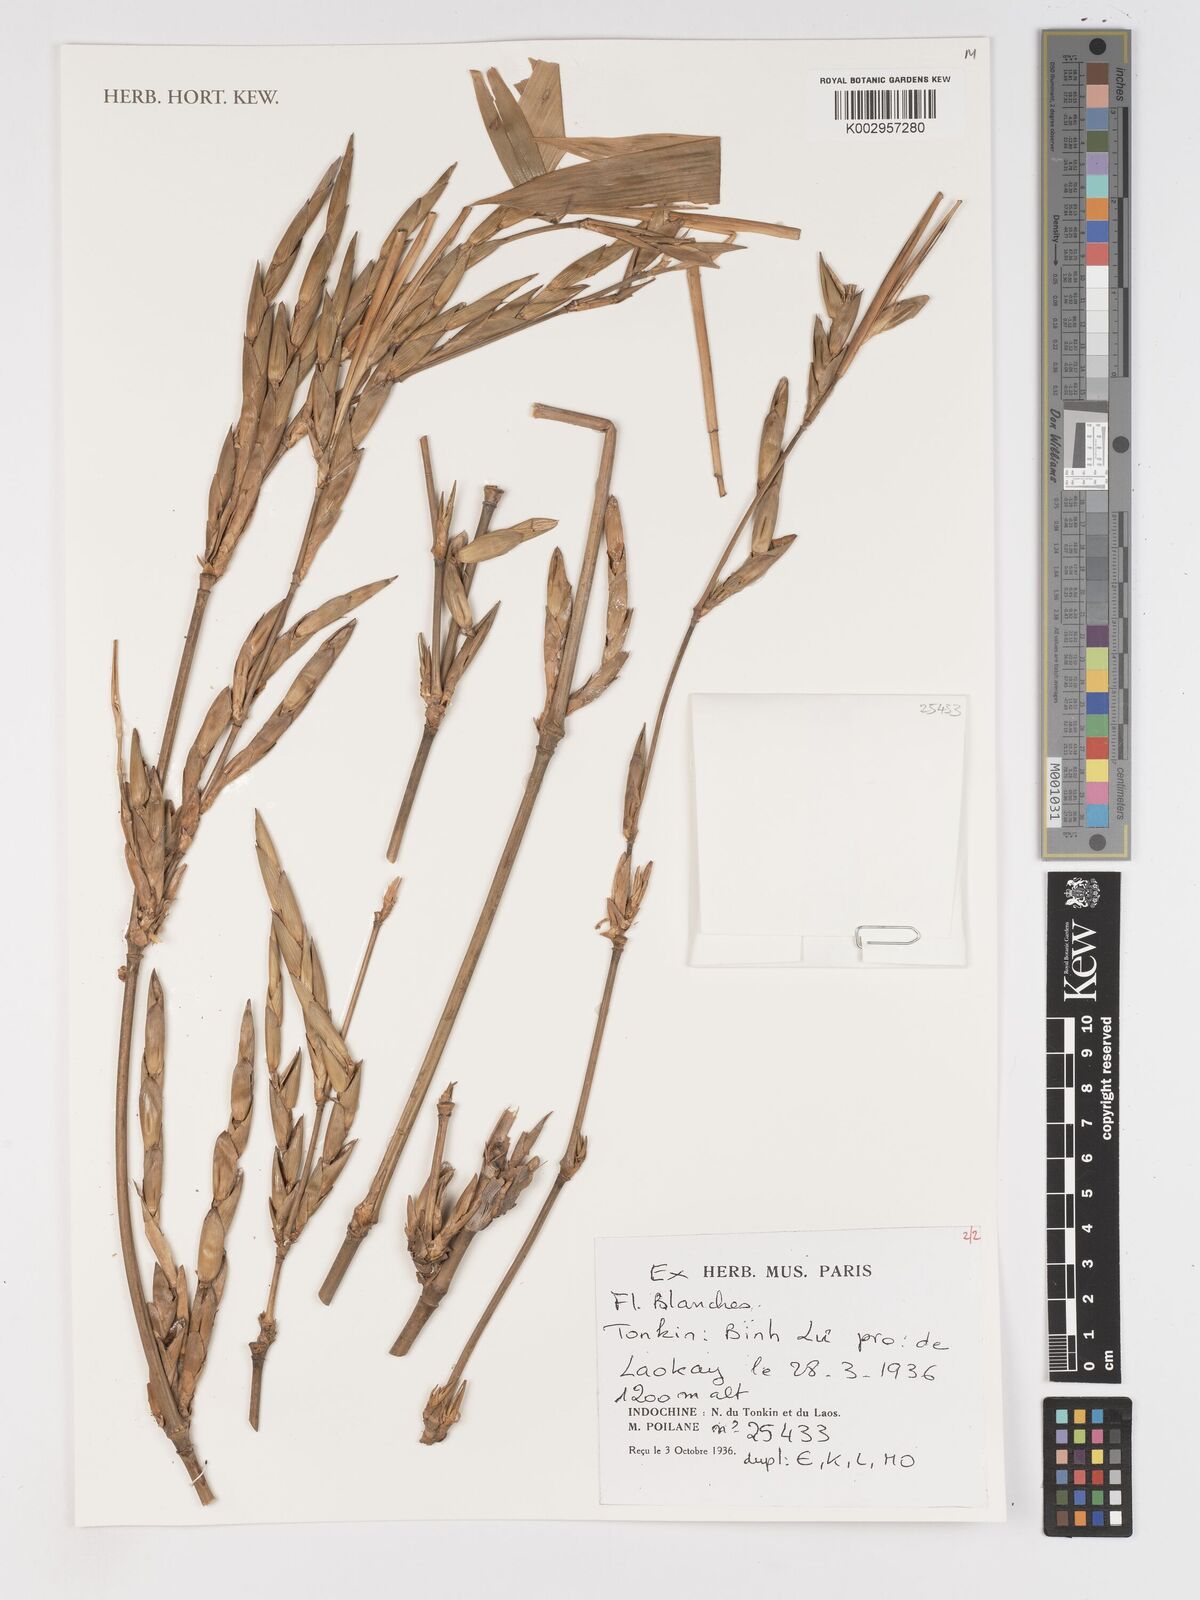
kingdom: Plantae
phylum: Tracheophyta
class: Liliopsida
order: Poales
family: Poaceae
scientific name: Poaceae
